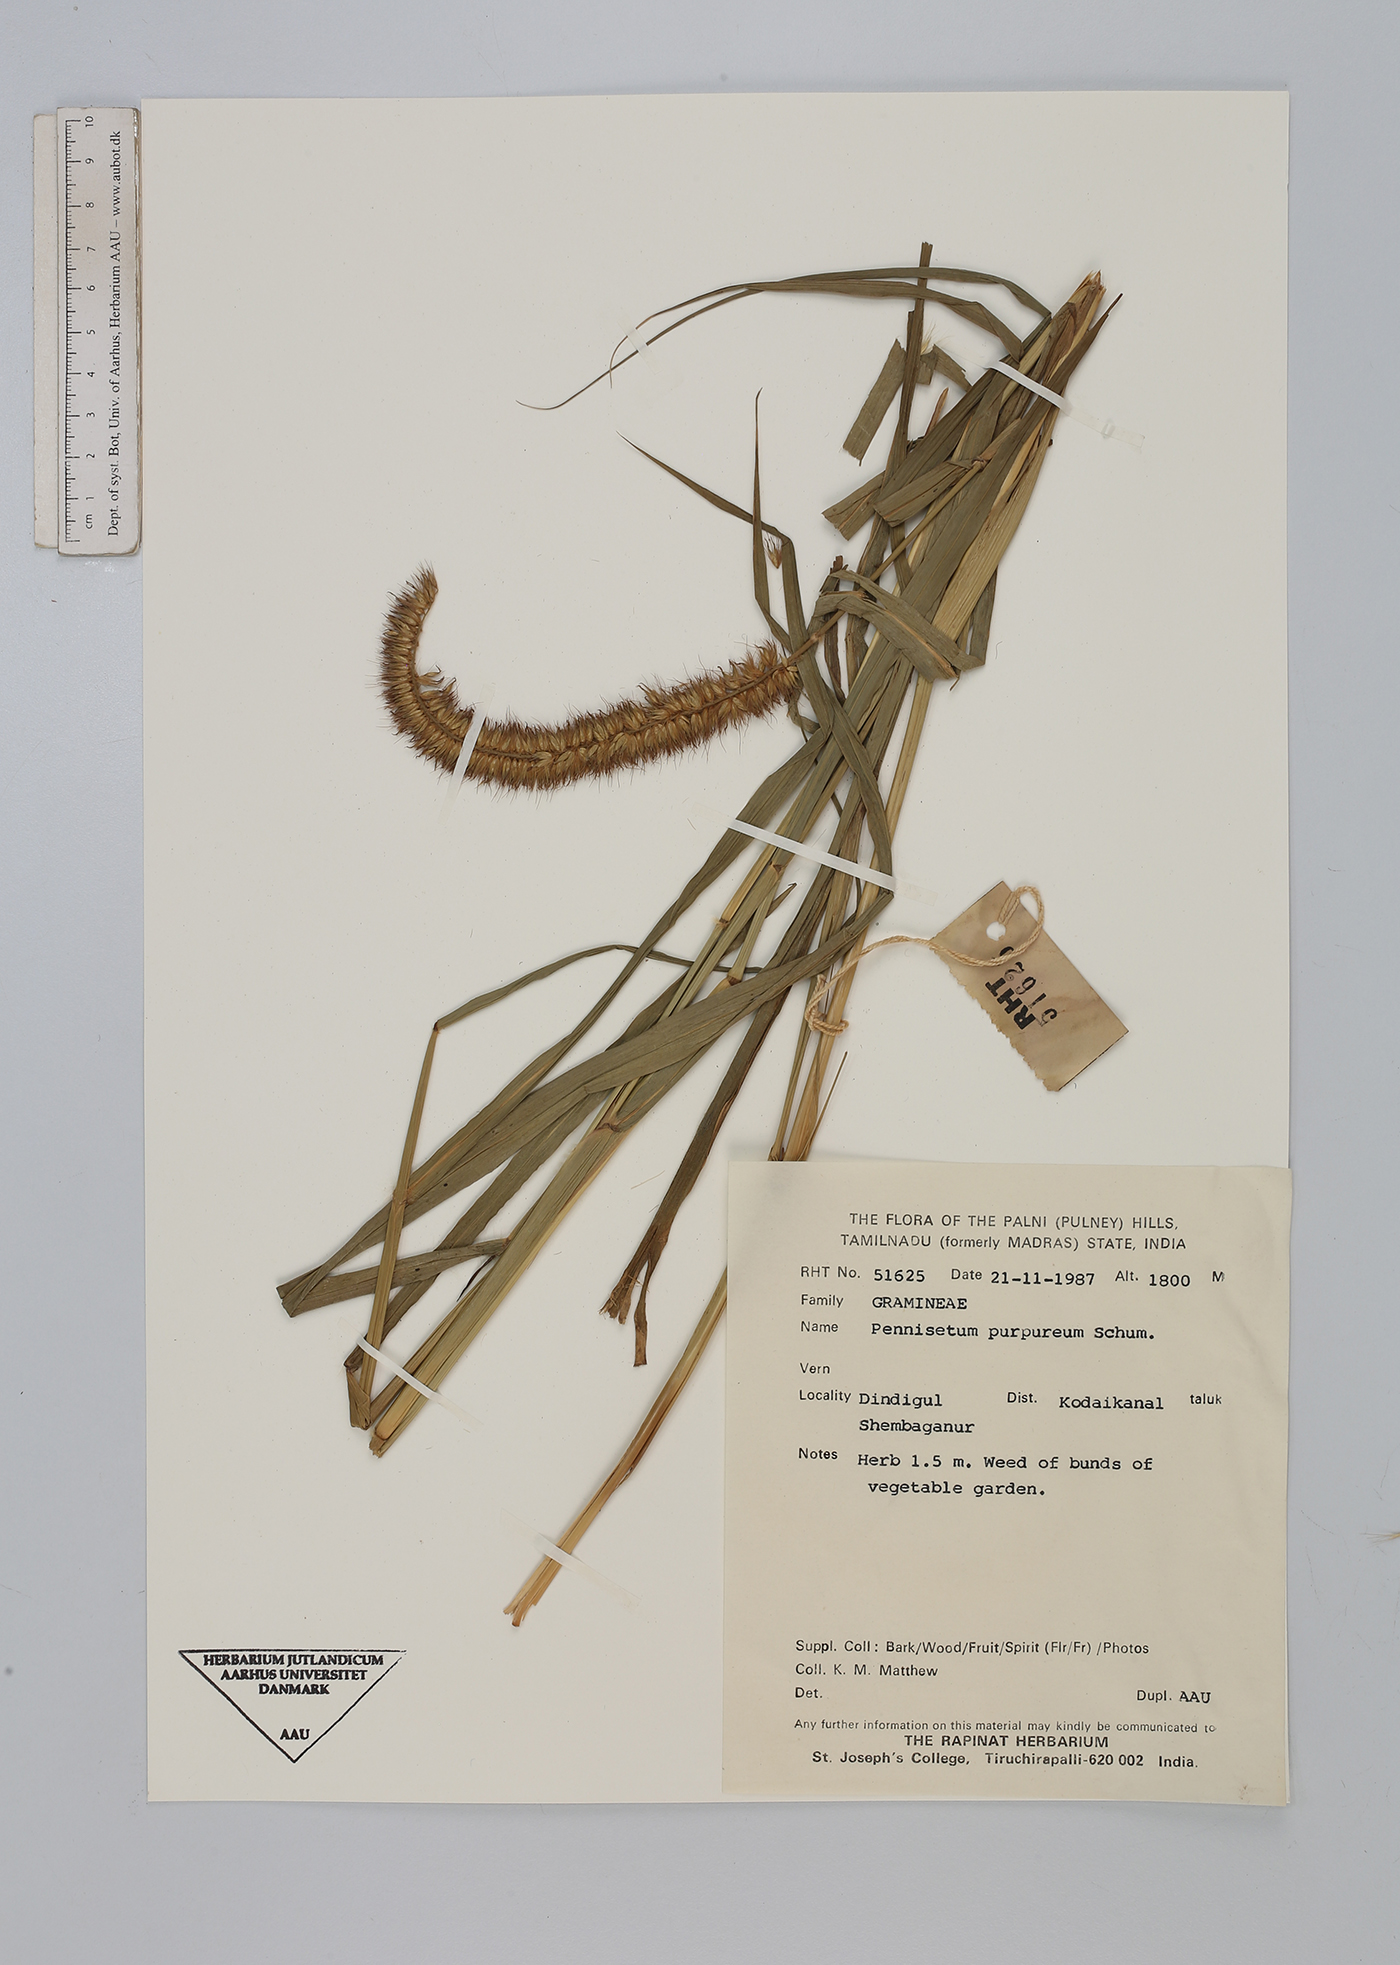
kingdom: Plantae
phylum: Tracheophyta
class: Liliopsida
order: Poales
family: Poaceae
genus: Cenchrus
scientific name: Cenchrus purpureus
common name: Elephant grass
